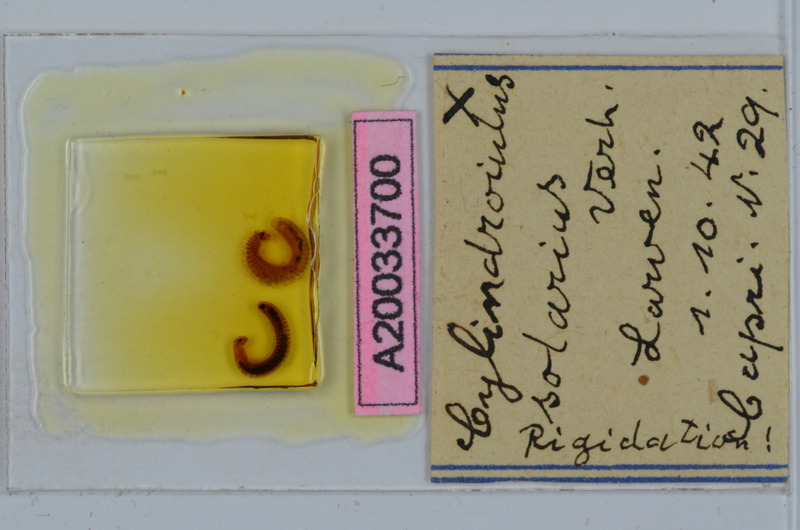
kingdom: Animalia
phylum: Arthropoda
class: Diplopoda
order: Julida
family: Julidae
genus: Cylindroiulus
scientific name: Cylindroiulus solarius
